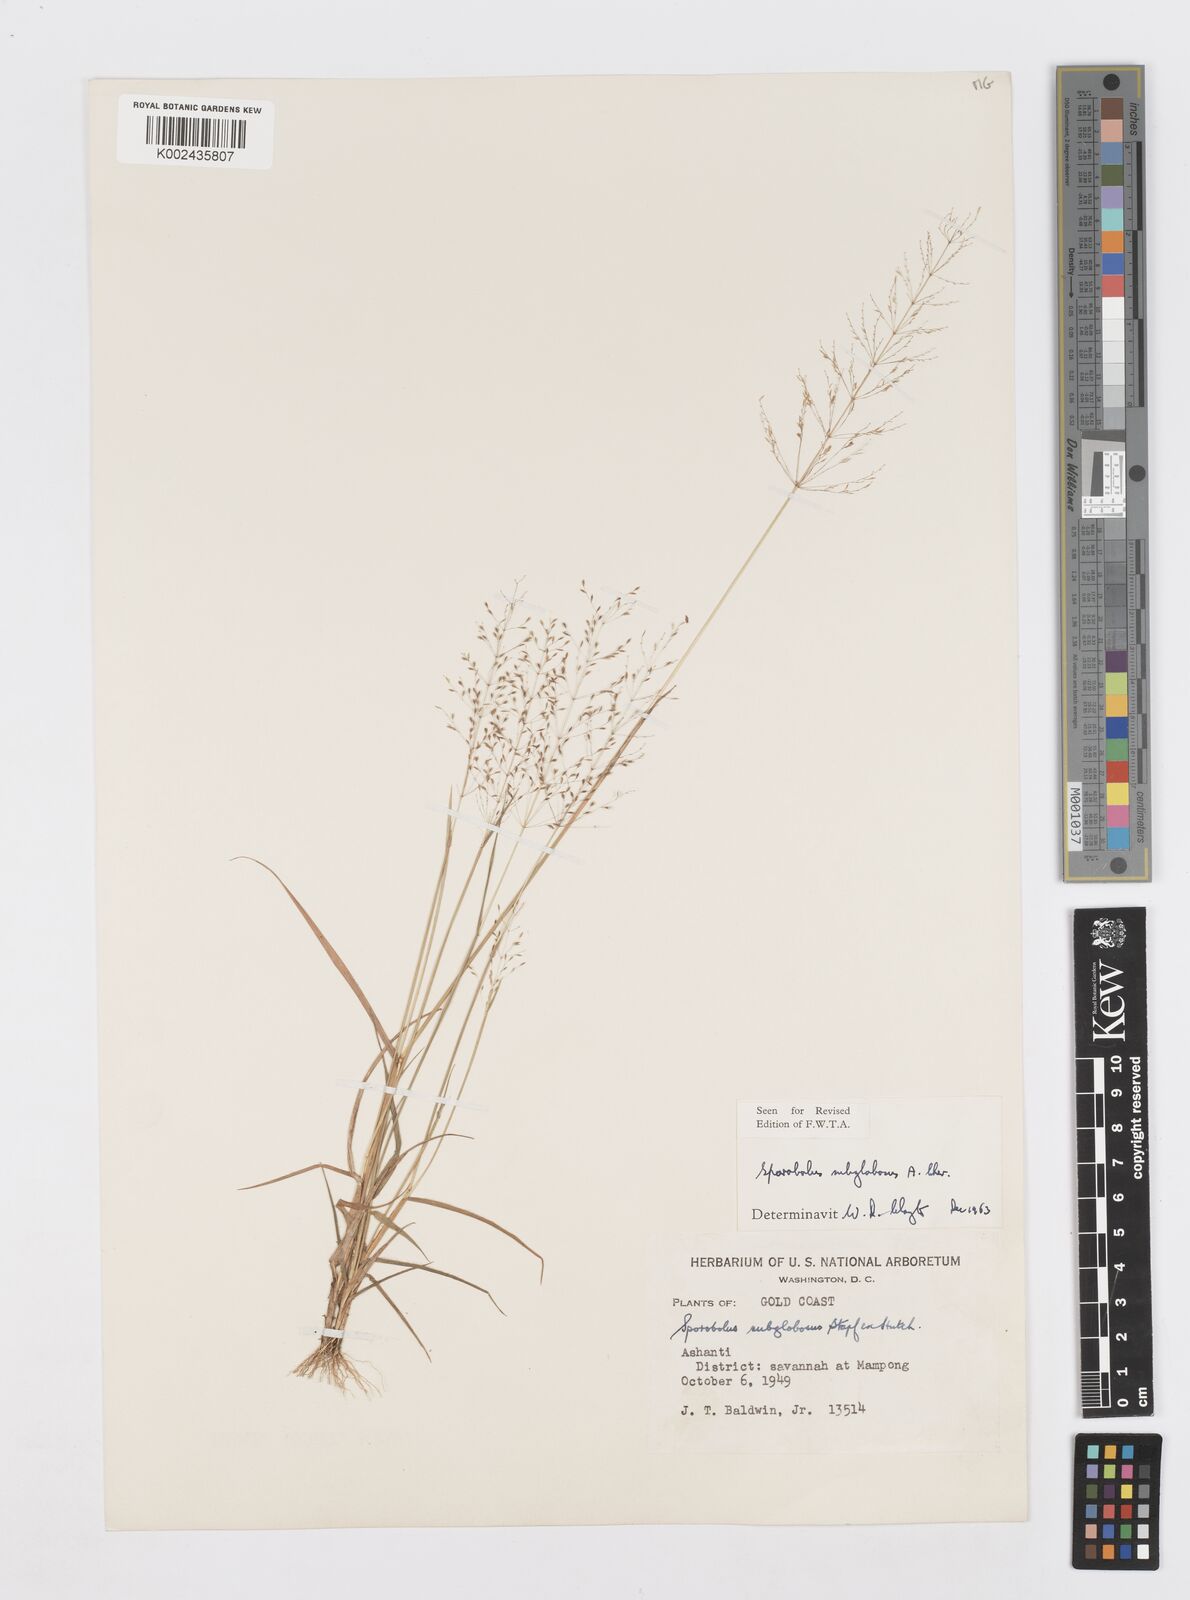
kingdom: Plantae
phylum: Tracheophyta
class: Liliopsida
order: Poales
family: Poaceae
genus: Sporobolus
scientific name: Sporobolus subglobosus
